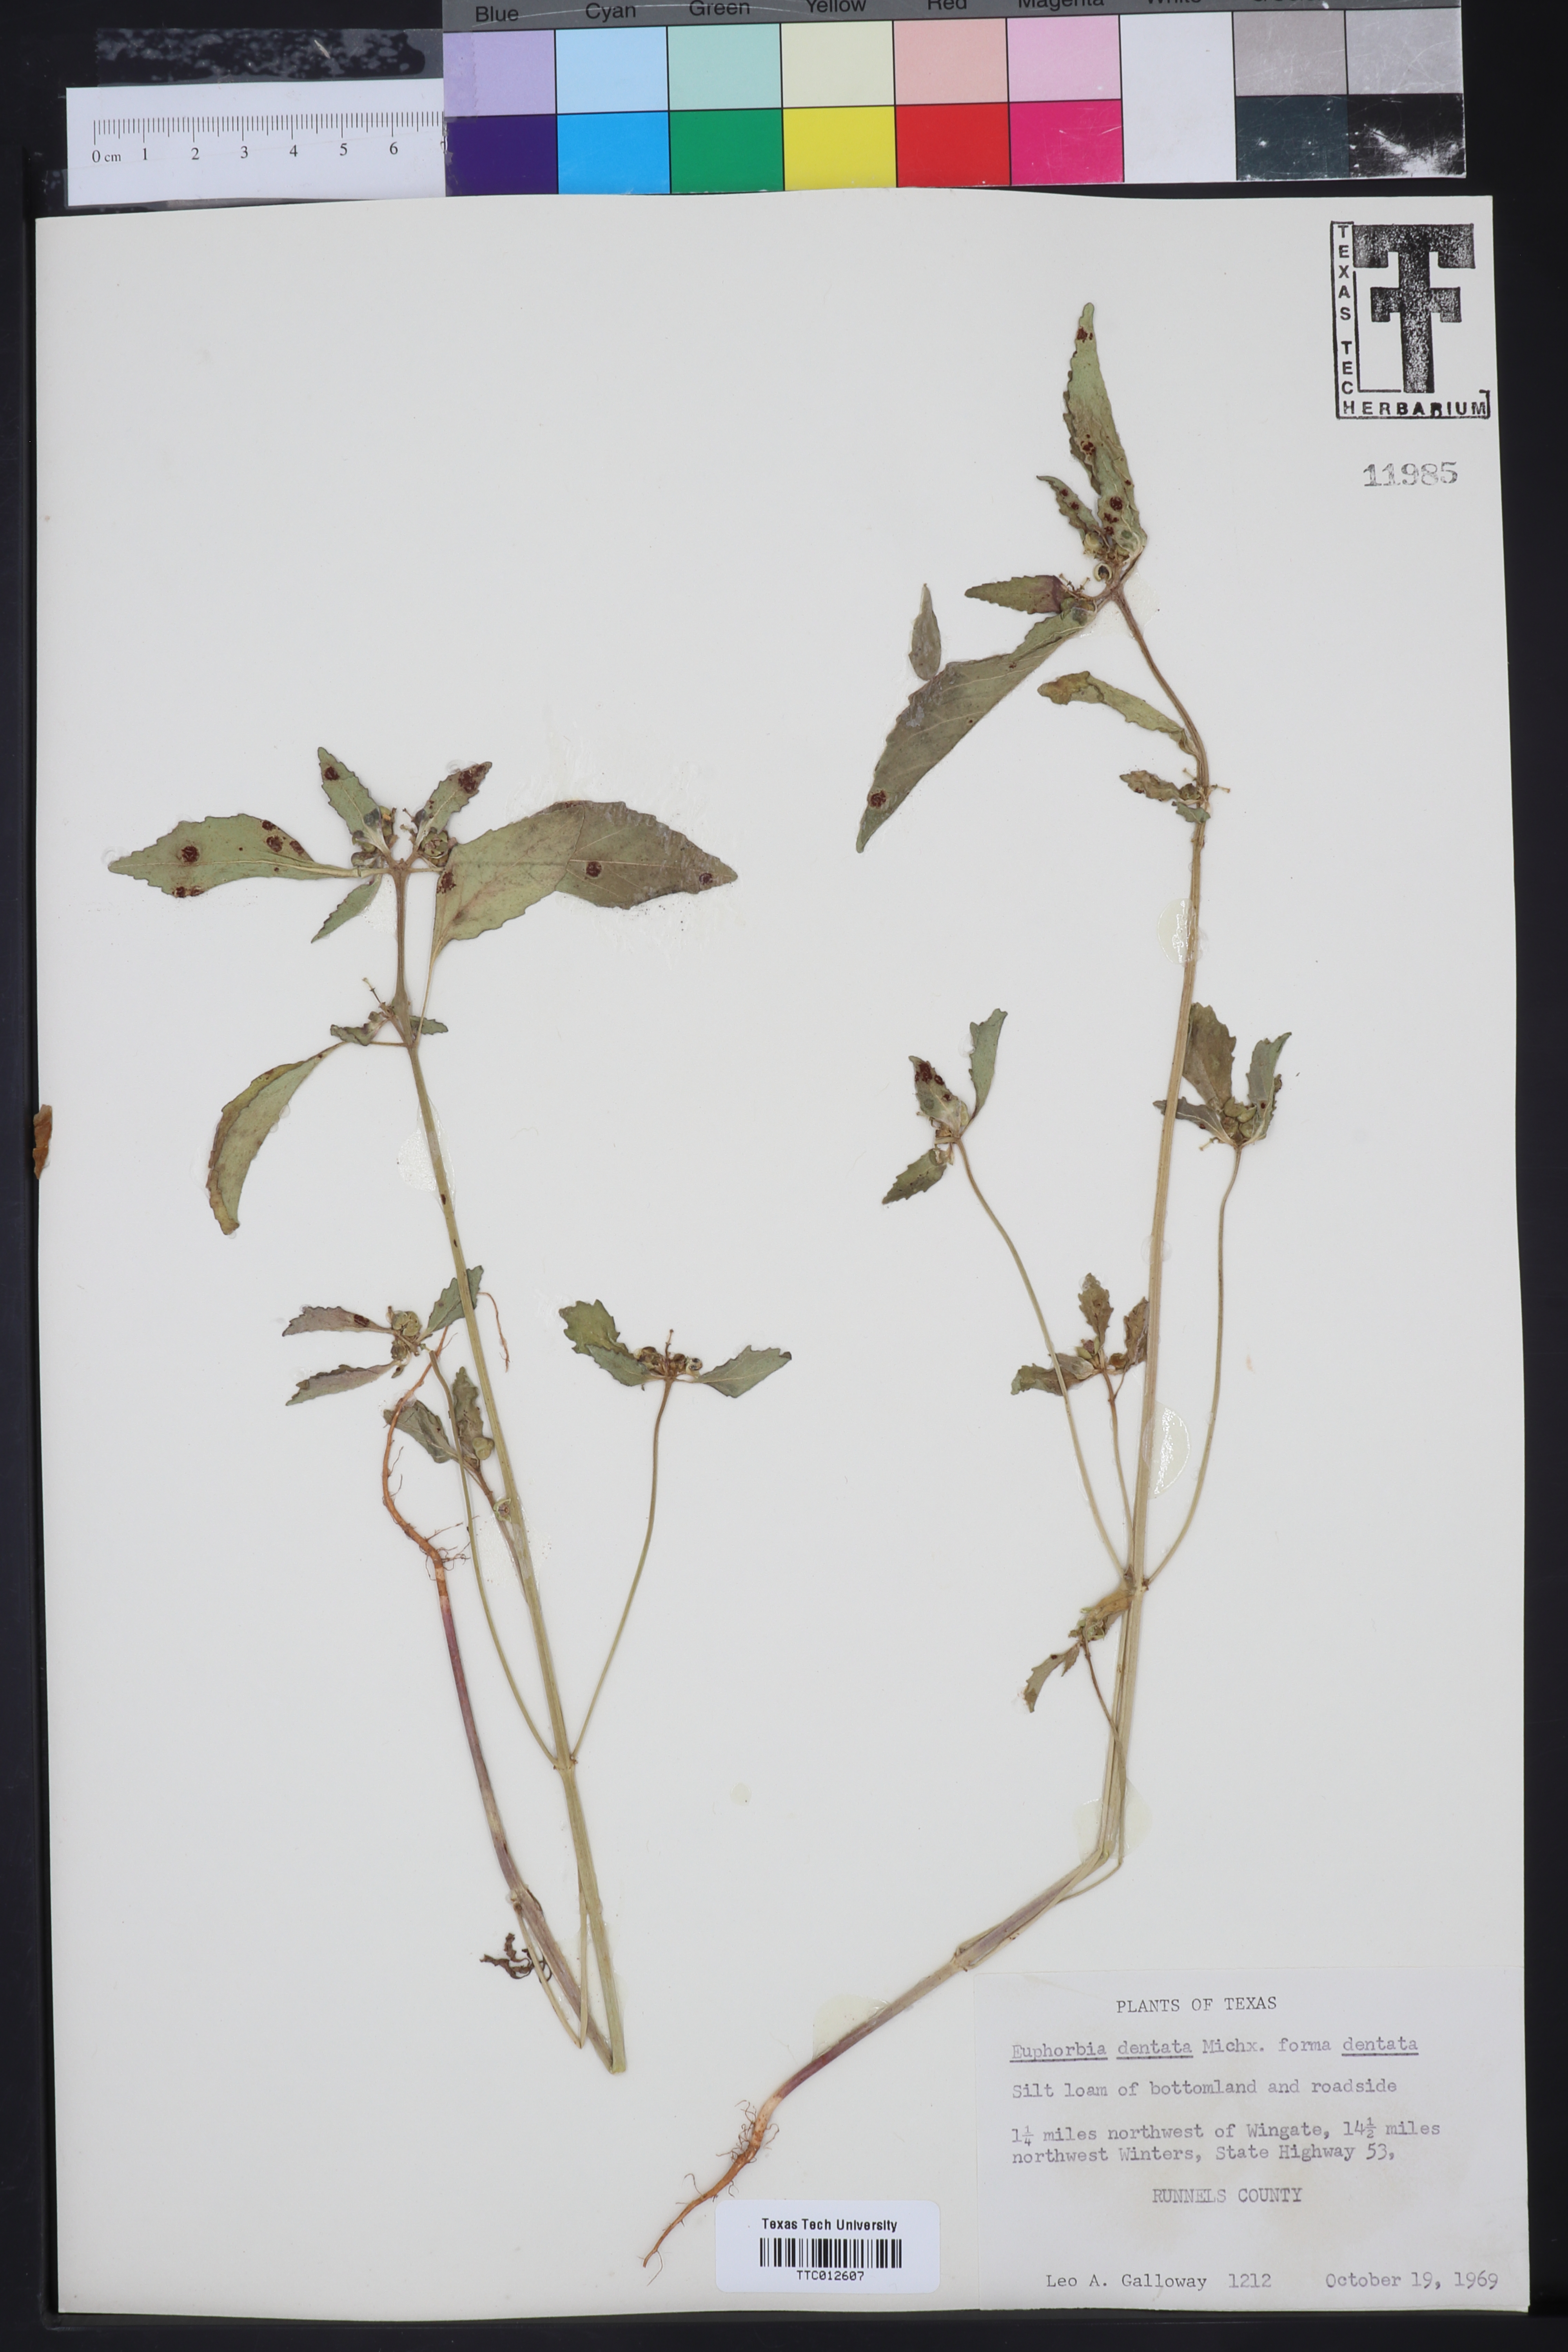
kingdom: Plantae
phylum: Tracheophyta
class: Magnoliopsida
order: Malpighiales
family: Euphorbiaceae
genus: Euphorbia
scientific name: Euphorbia dentata
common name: Dentate spurge
